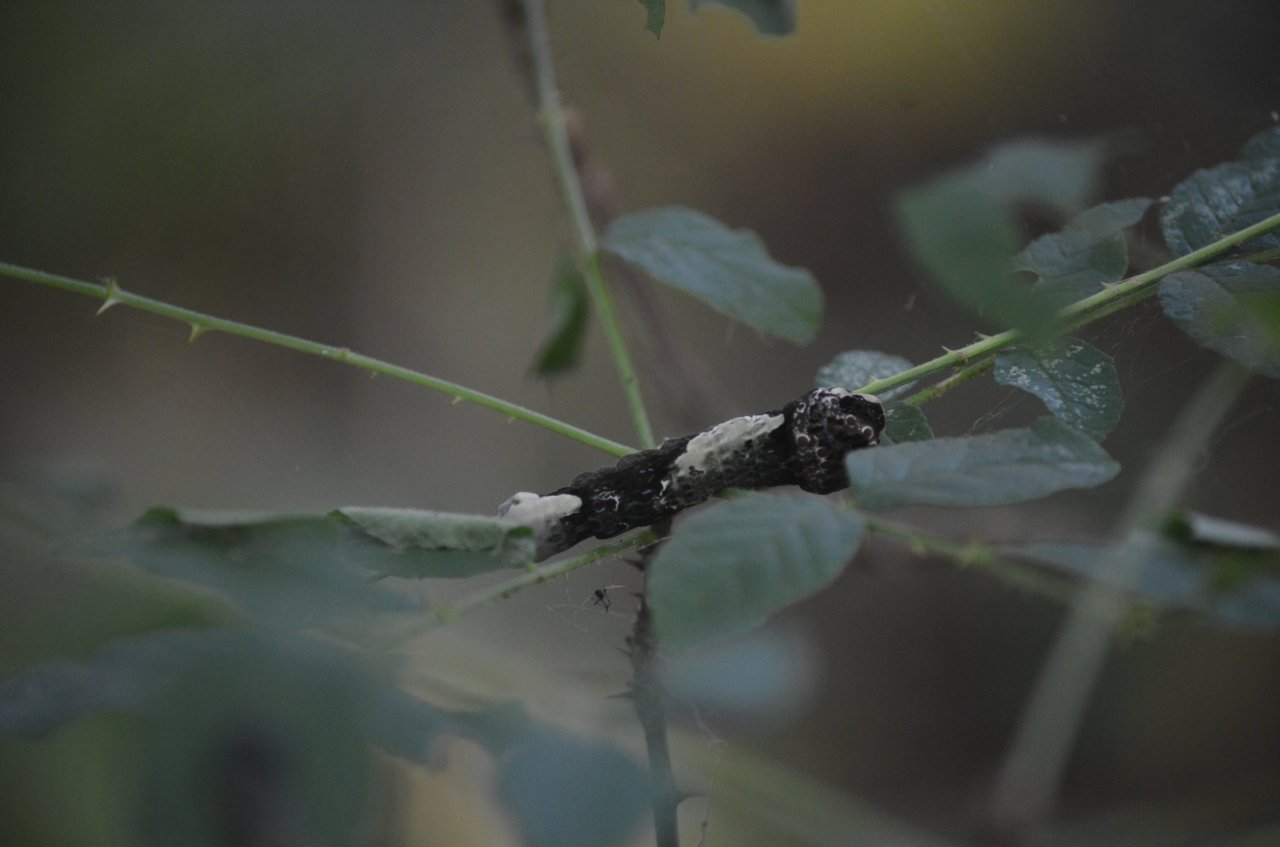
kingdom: Animalia
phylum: Arthropoda
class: Insecta
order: Lepidoptera
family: Papilionidae
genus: Papilio
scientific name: Papilio cresphontes
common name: Eastern Giant Swallowtail
